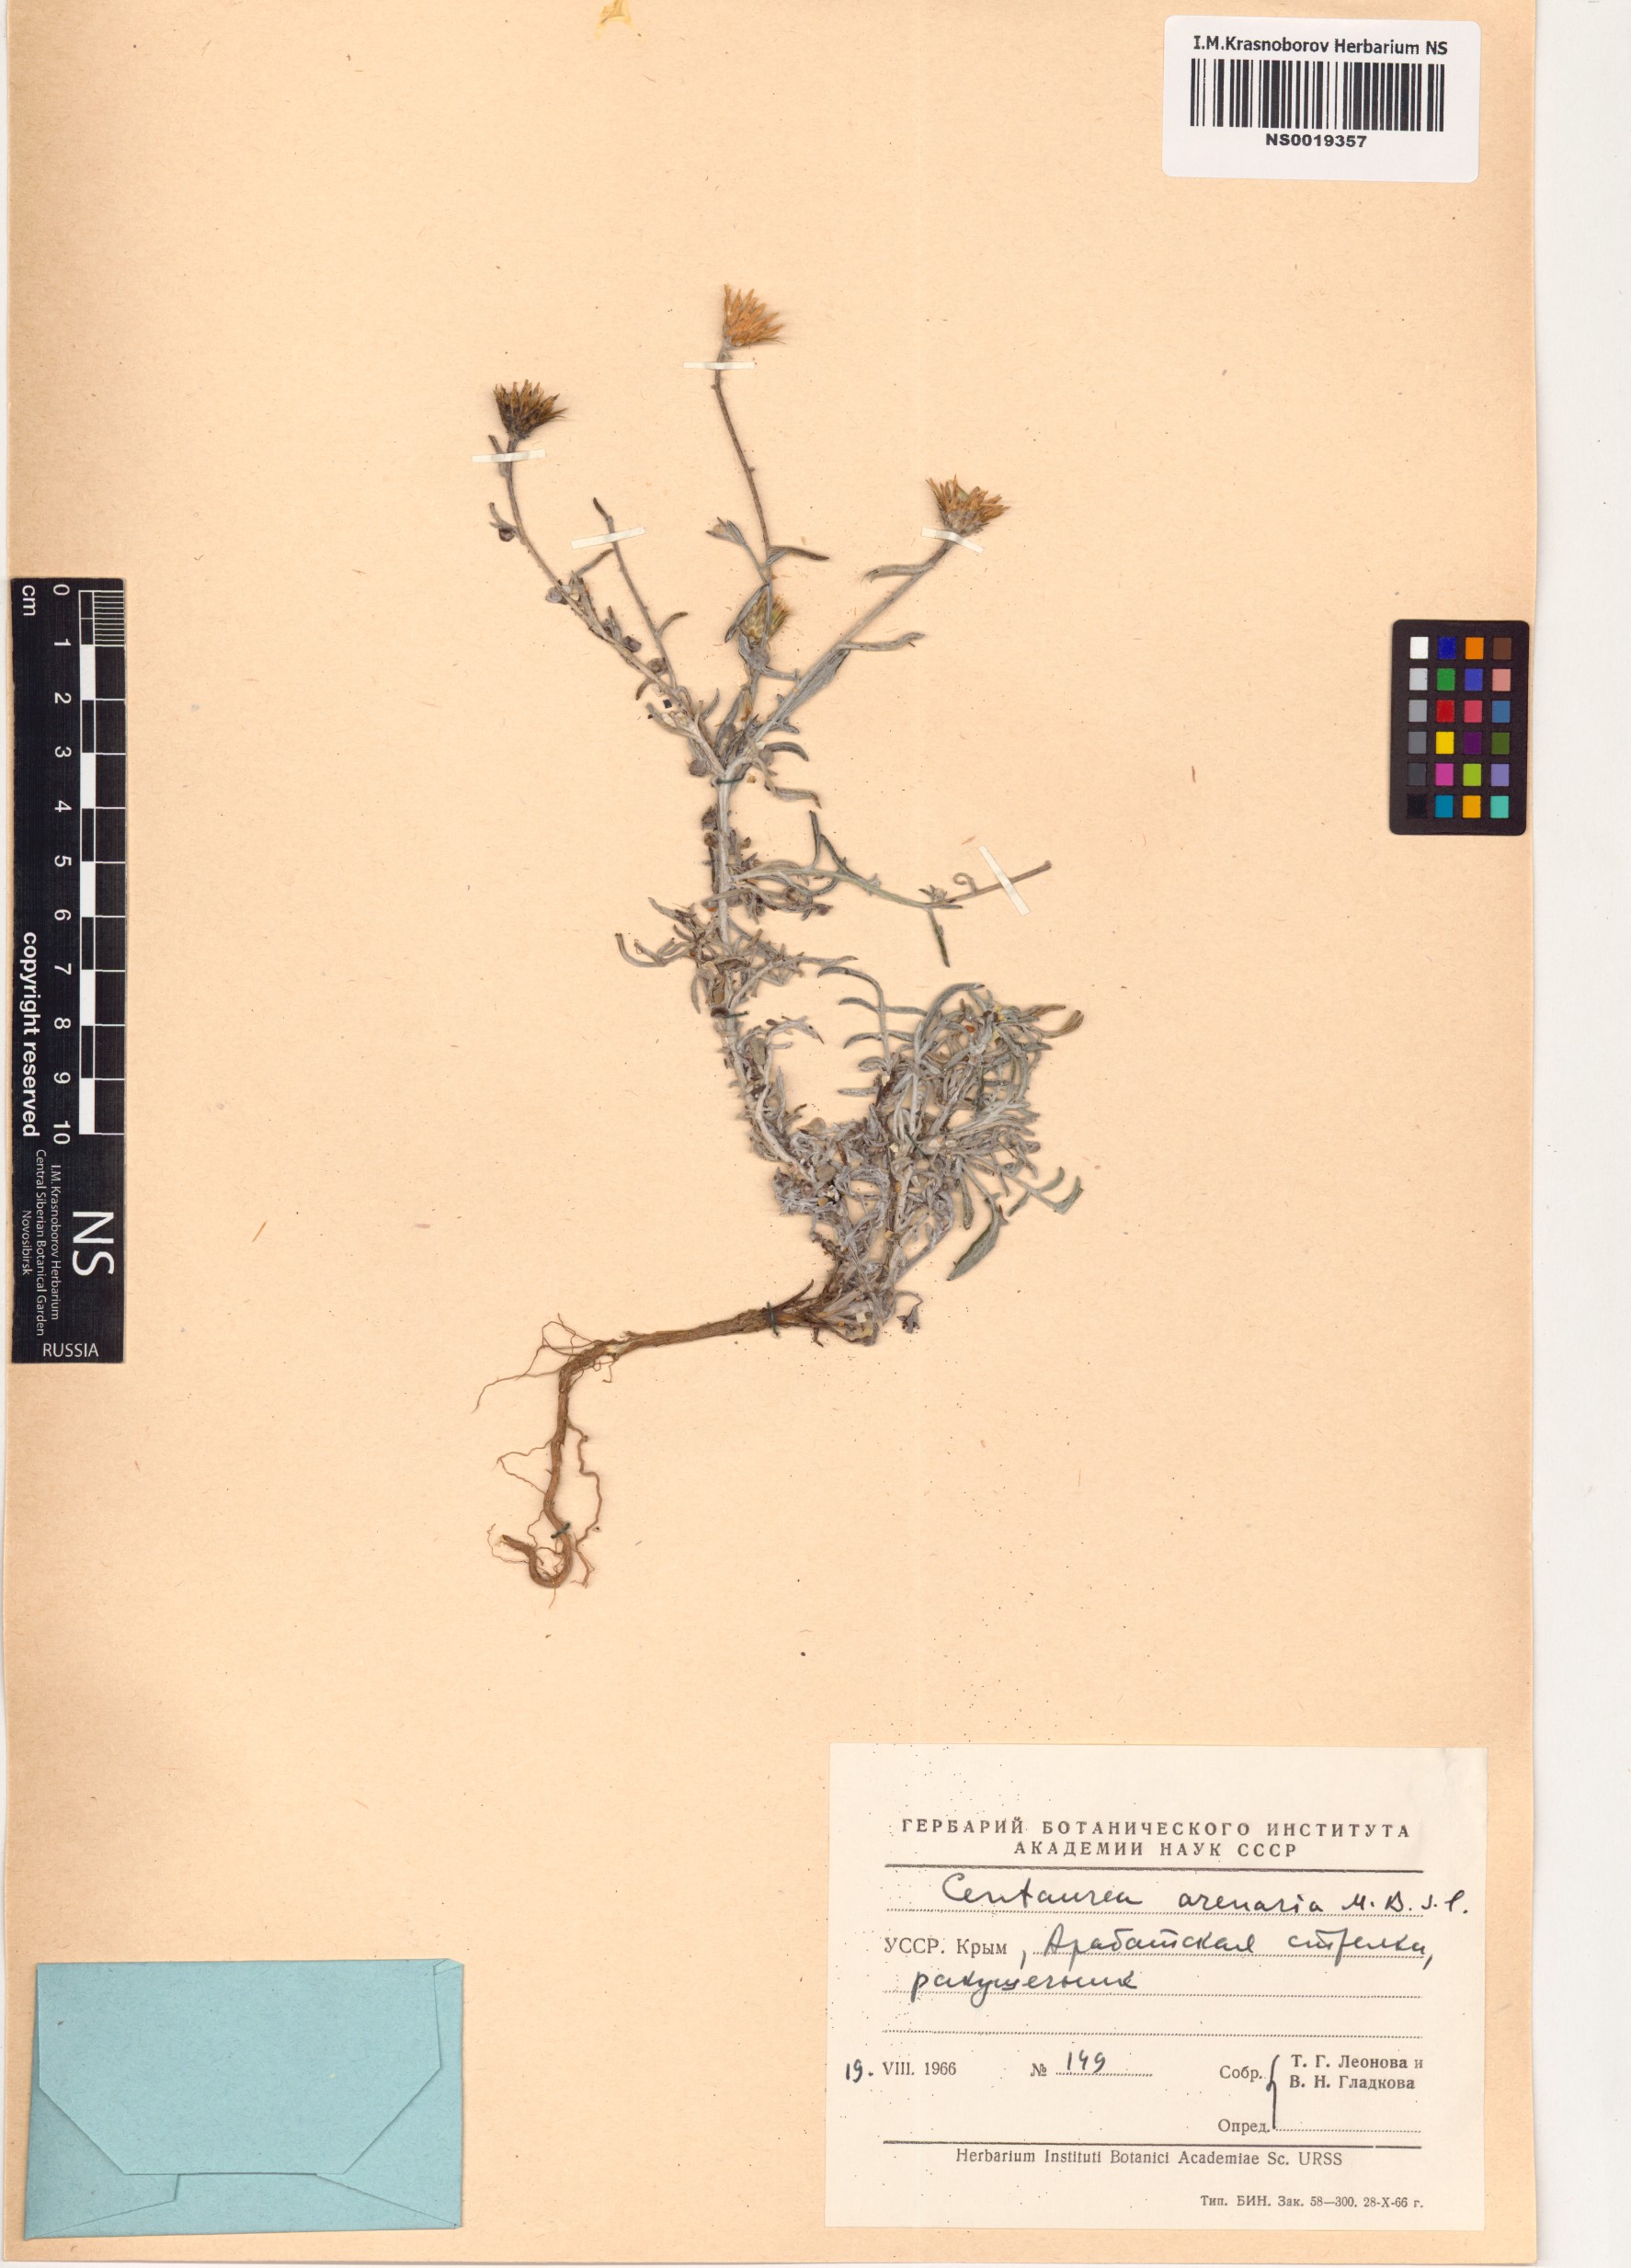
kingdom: Plantae
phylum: Tracheophyta
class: Magnoliopsida
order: Asterales
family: Asteraceae
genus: Centaurea
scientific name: Centaurea arenaria
